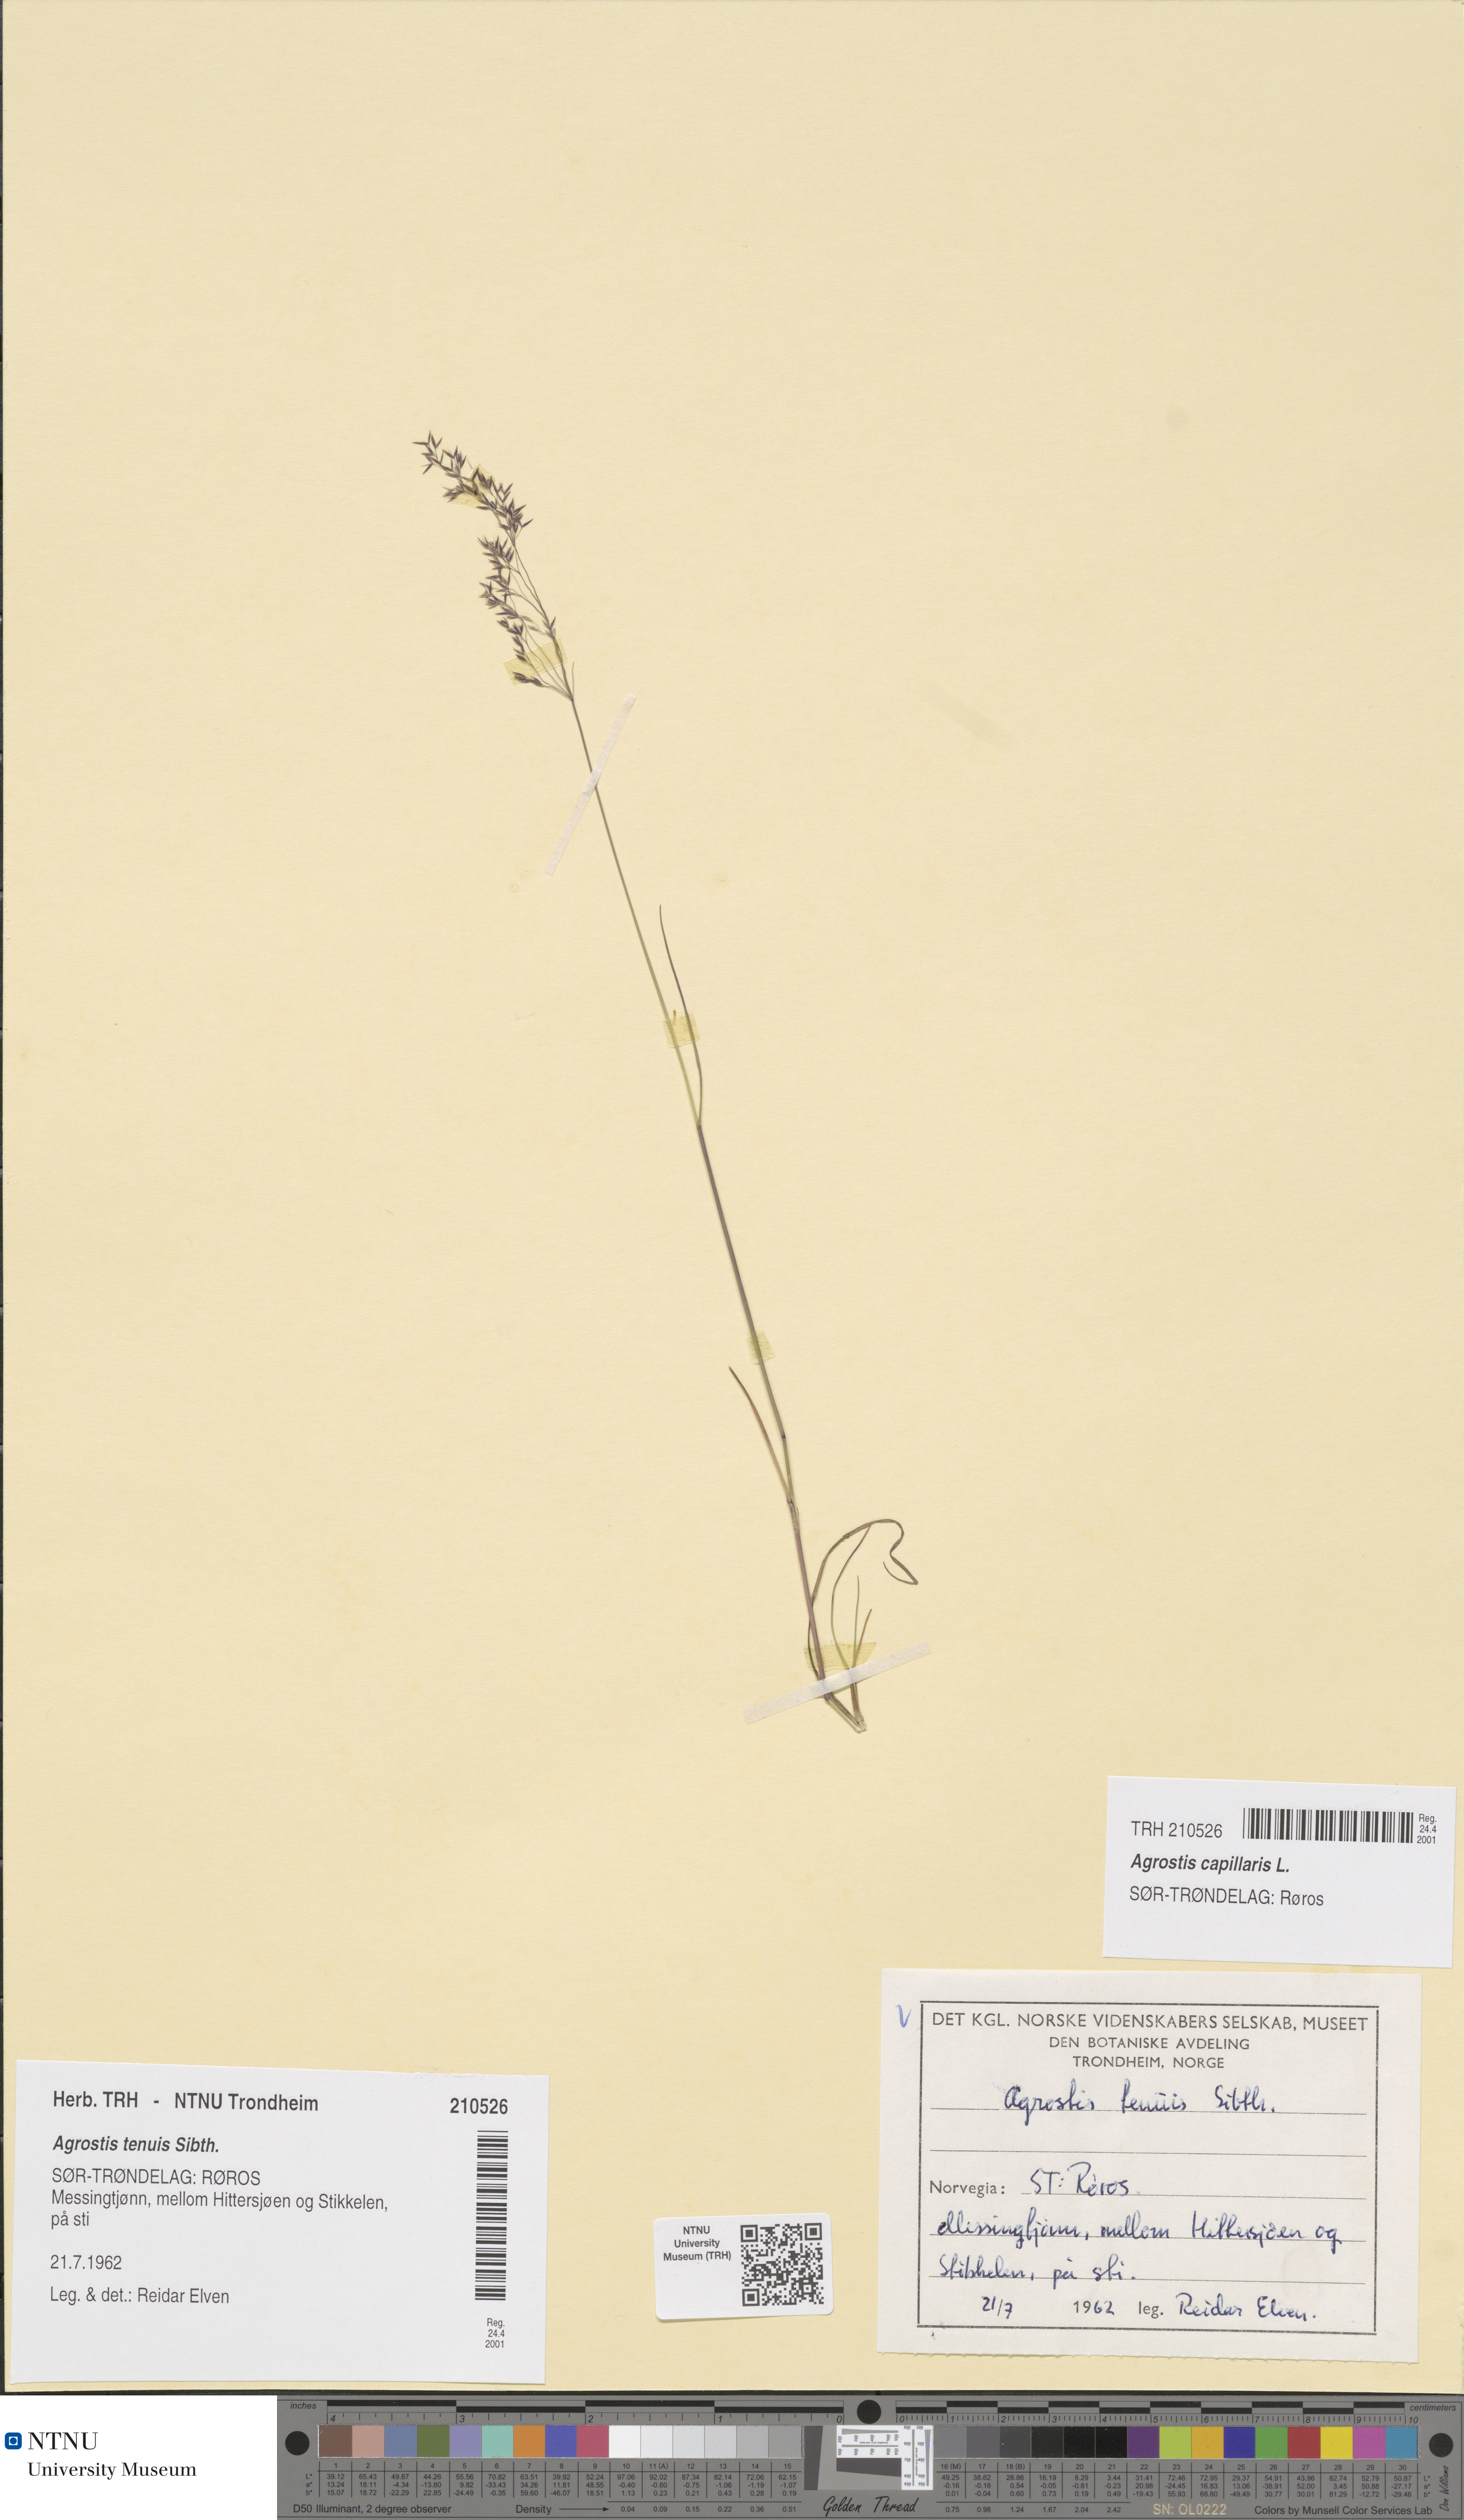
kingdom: Plantae
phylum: Tracheophyta
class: Liliopsida
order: Poales
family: Poaceae
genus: Agrostis
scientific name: Agrostis capillaris
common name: Colonial bentgrass
